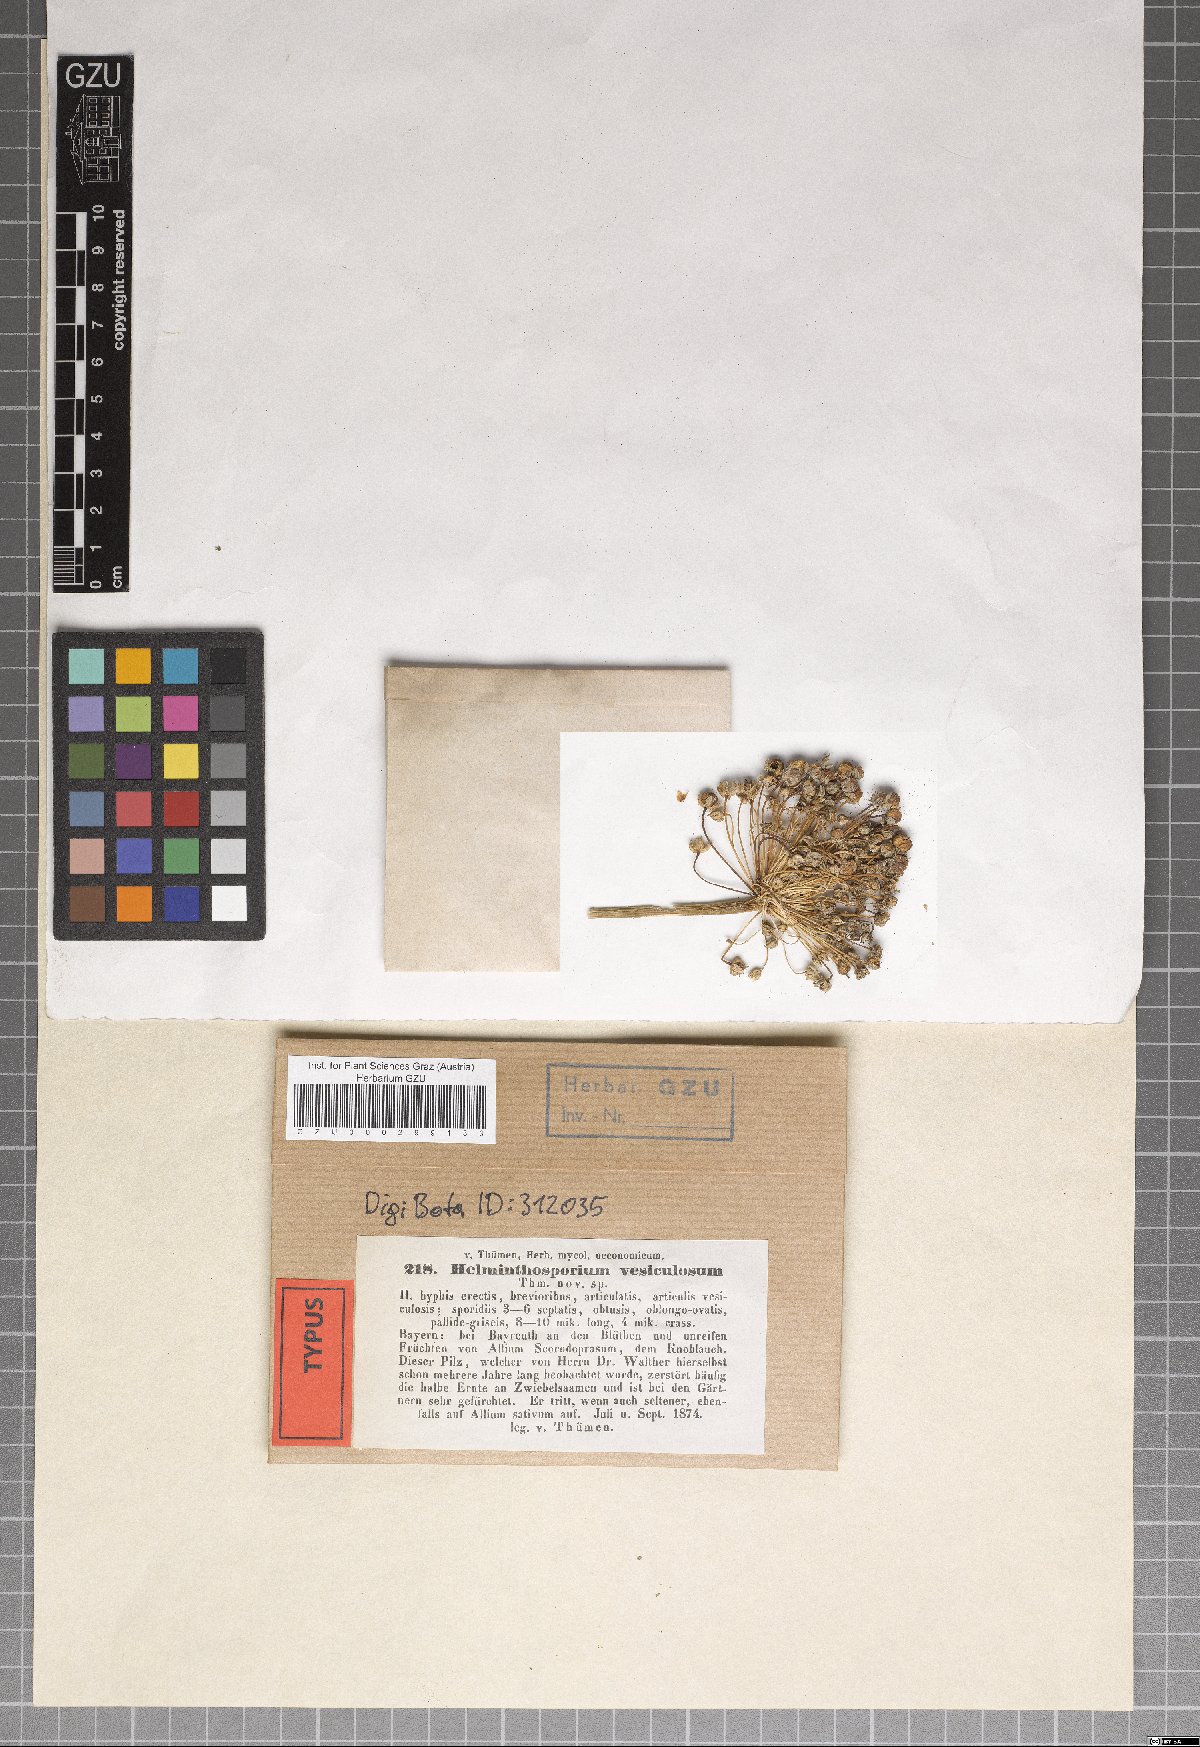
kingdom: Fungi
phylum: Ascomycota
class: Dothideomycetes
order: Pleosporales
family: Massarinaceae
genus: Helminthosporium
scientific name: Helminthosporium
